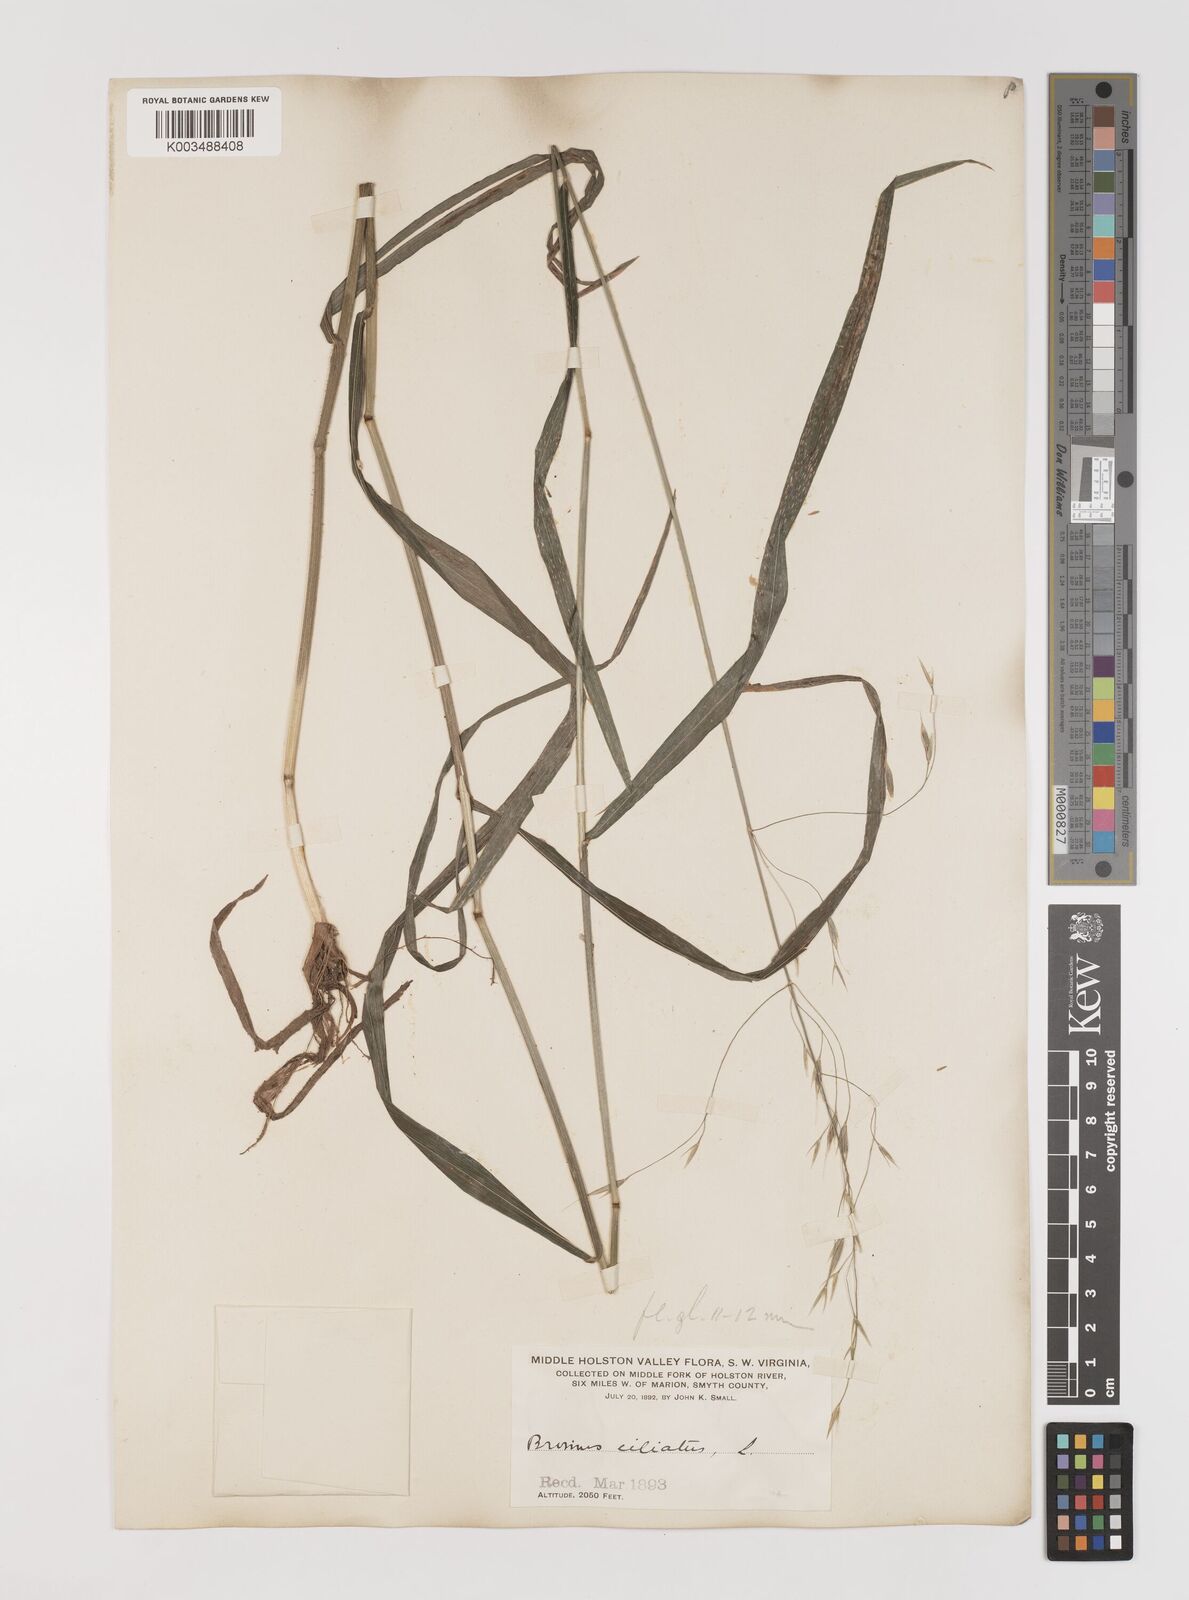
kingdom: Plantae
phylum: Tracheophyta
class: Liliopsida
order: Poales
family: Poaceae
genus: Bromus
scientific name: Bromus ciliatus
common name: Fringe brome
